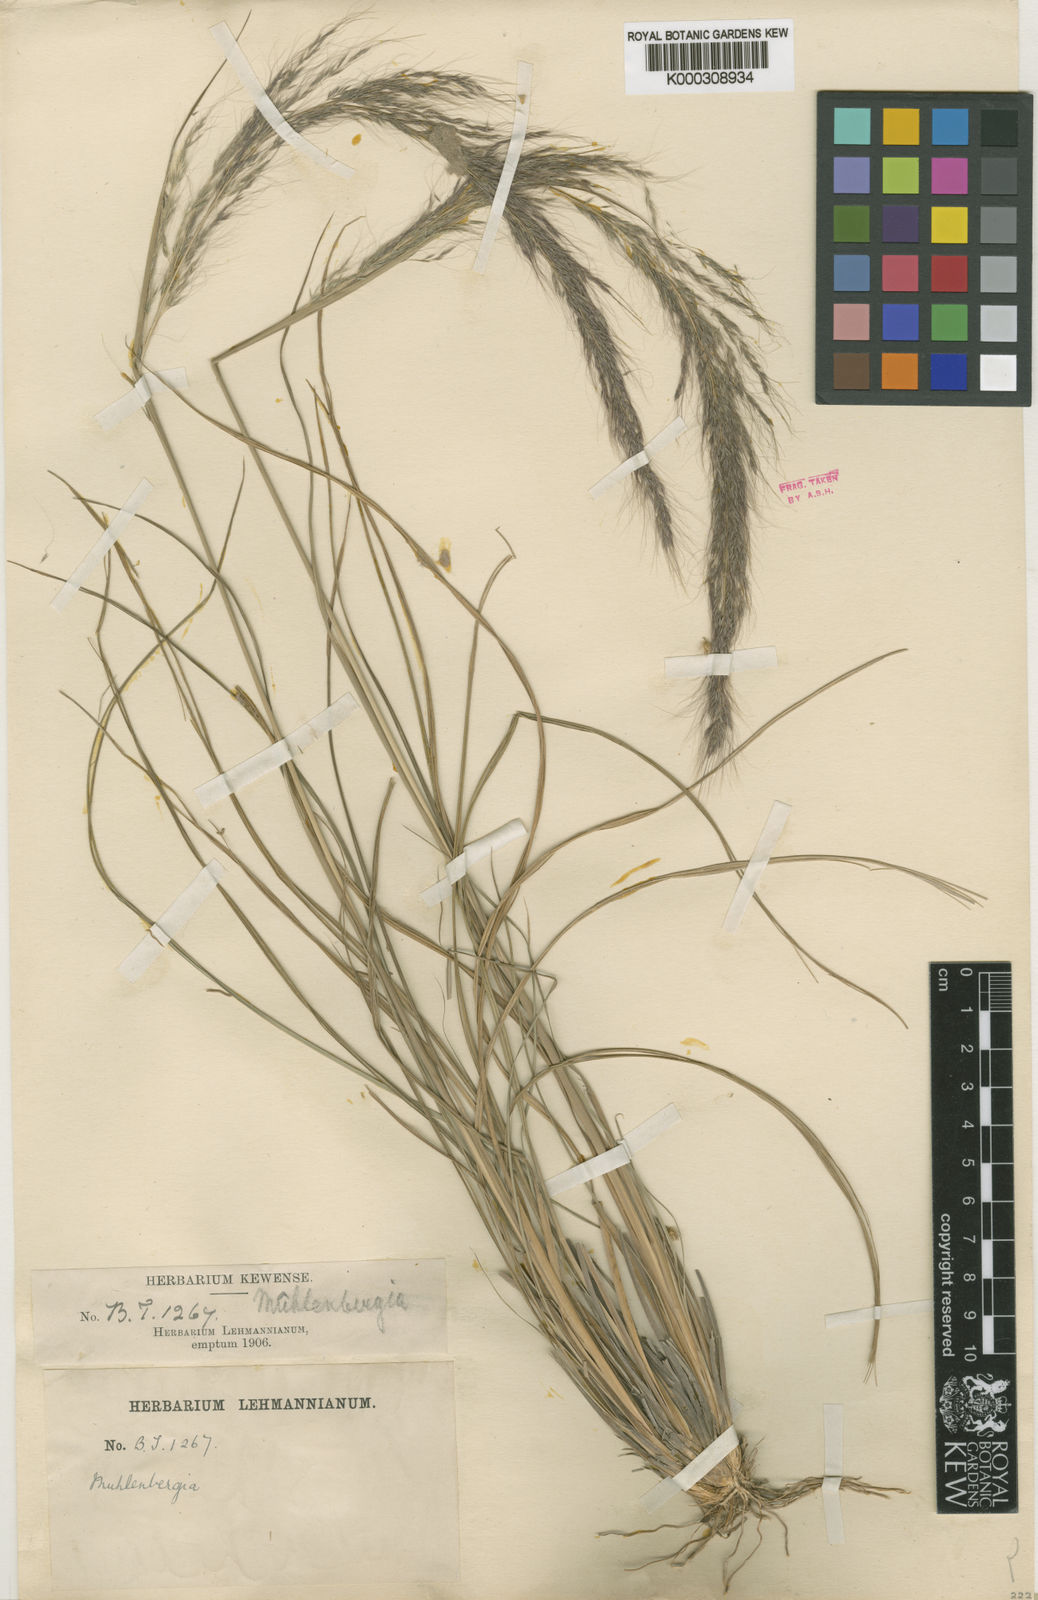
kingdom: Plantae
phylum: Tracheophyta
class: Liliopsida
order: Poales
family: Poaceae
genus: Muhlenbergia
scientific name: Muhlenbergia lehmanniana
